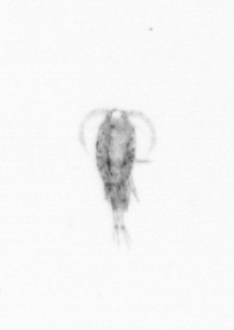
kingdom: Animalia
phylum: Arthropoda
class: Copepoda
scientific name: Copepoda
